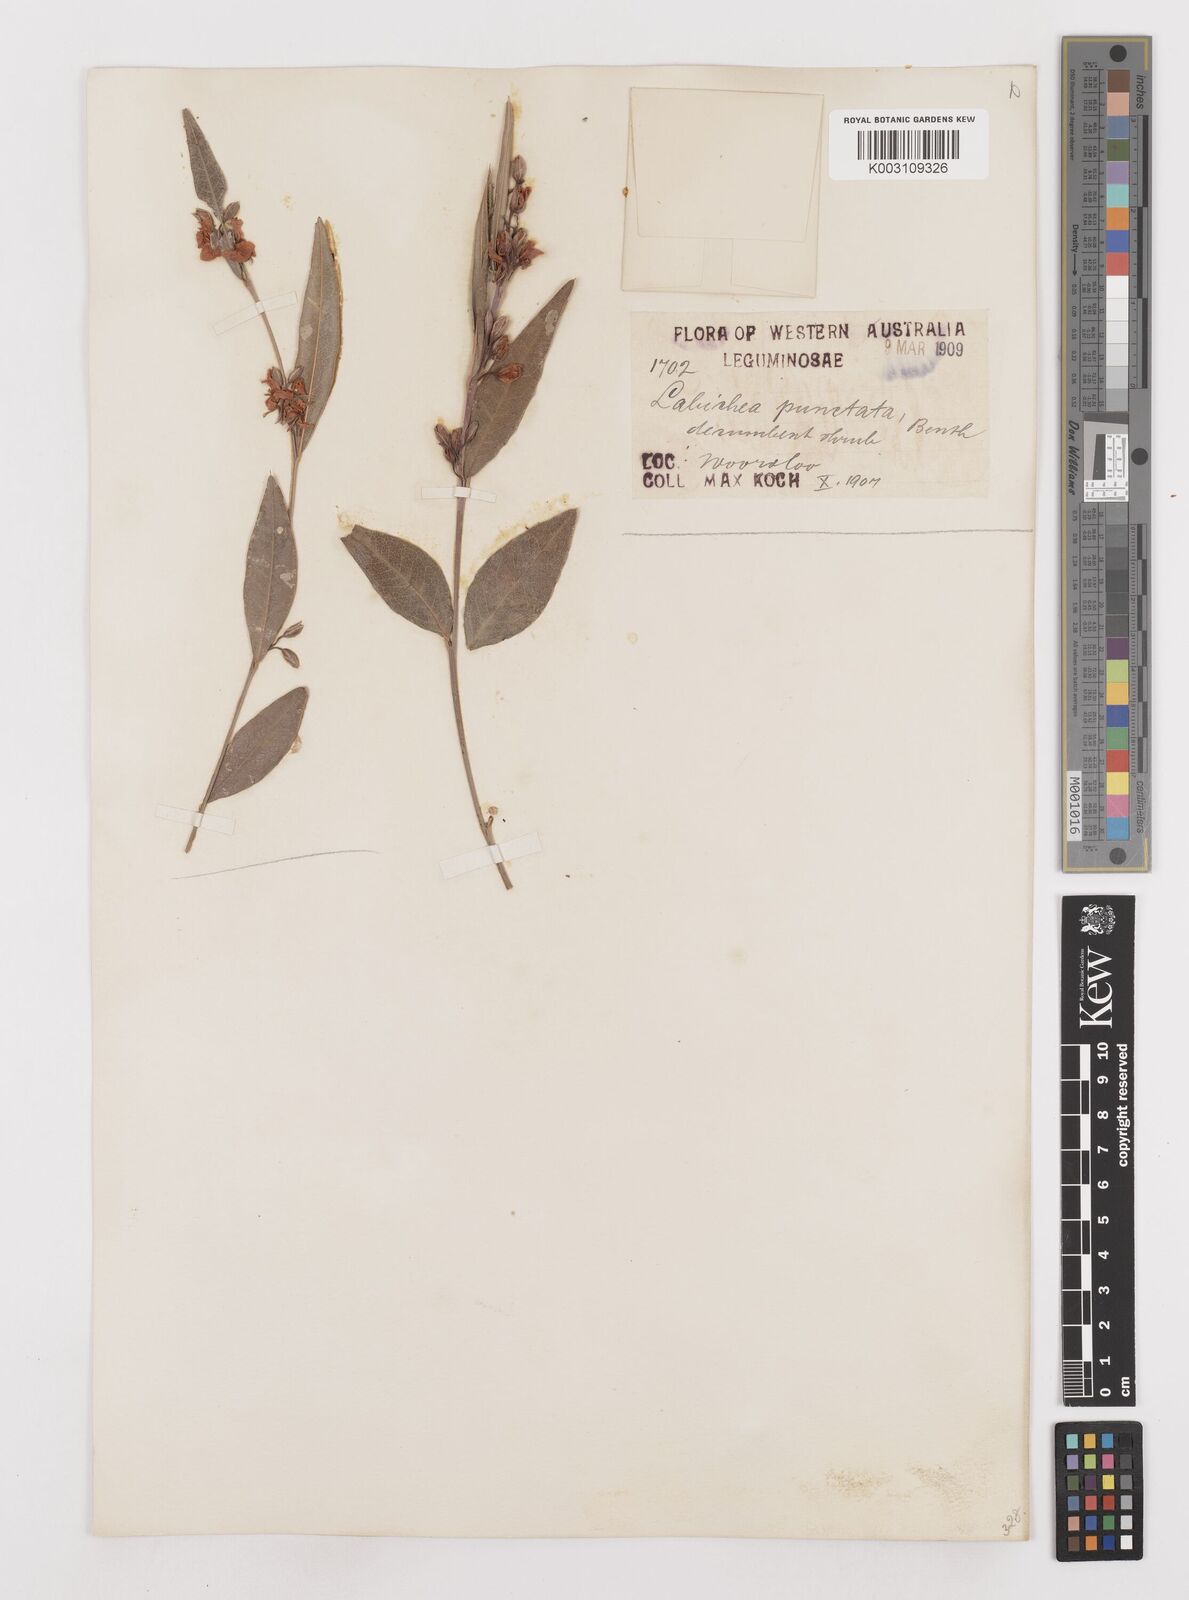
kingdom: Plantae
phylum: Tracheophyta
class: Magnoliopsida
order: Fabales
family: Fabaceae
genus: Labichea
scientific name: Labichea punctata
